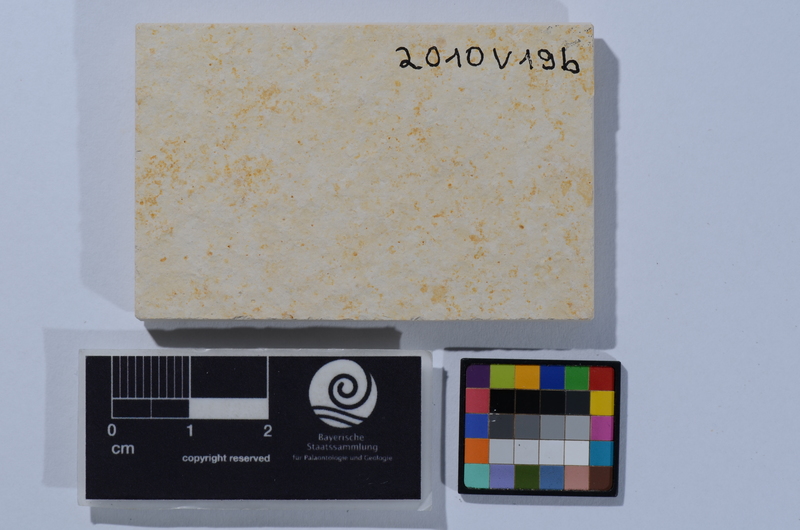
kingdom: Animalia
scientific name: Animalia
